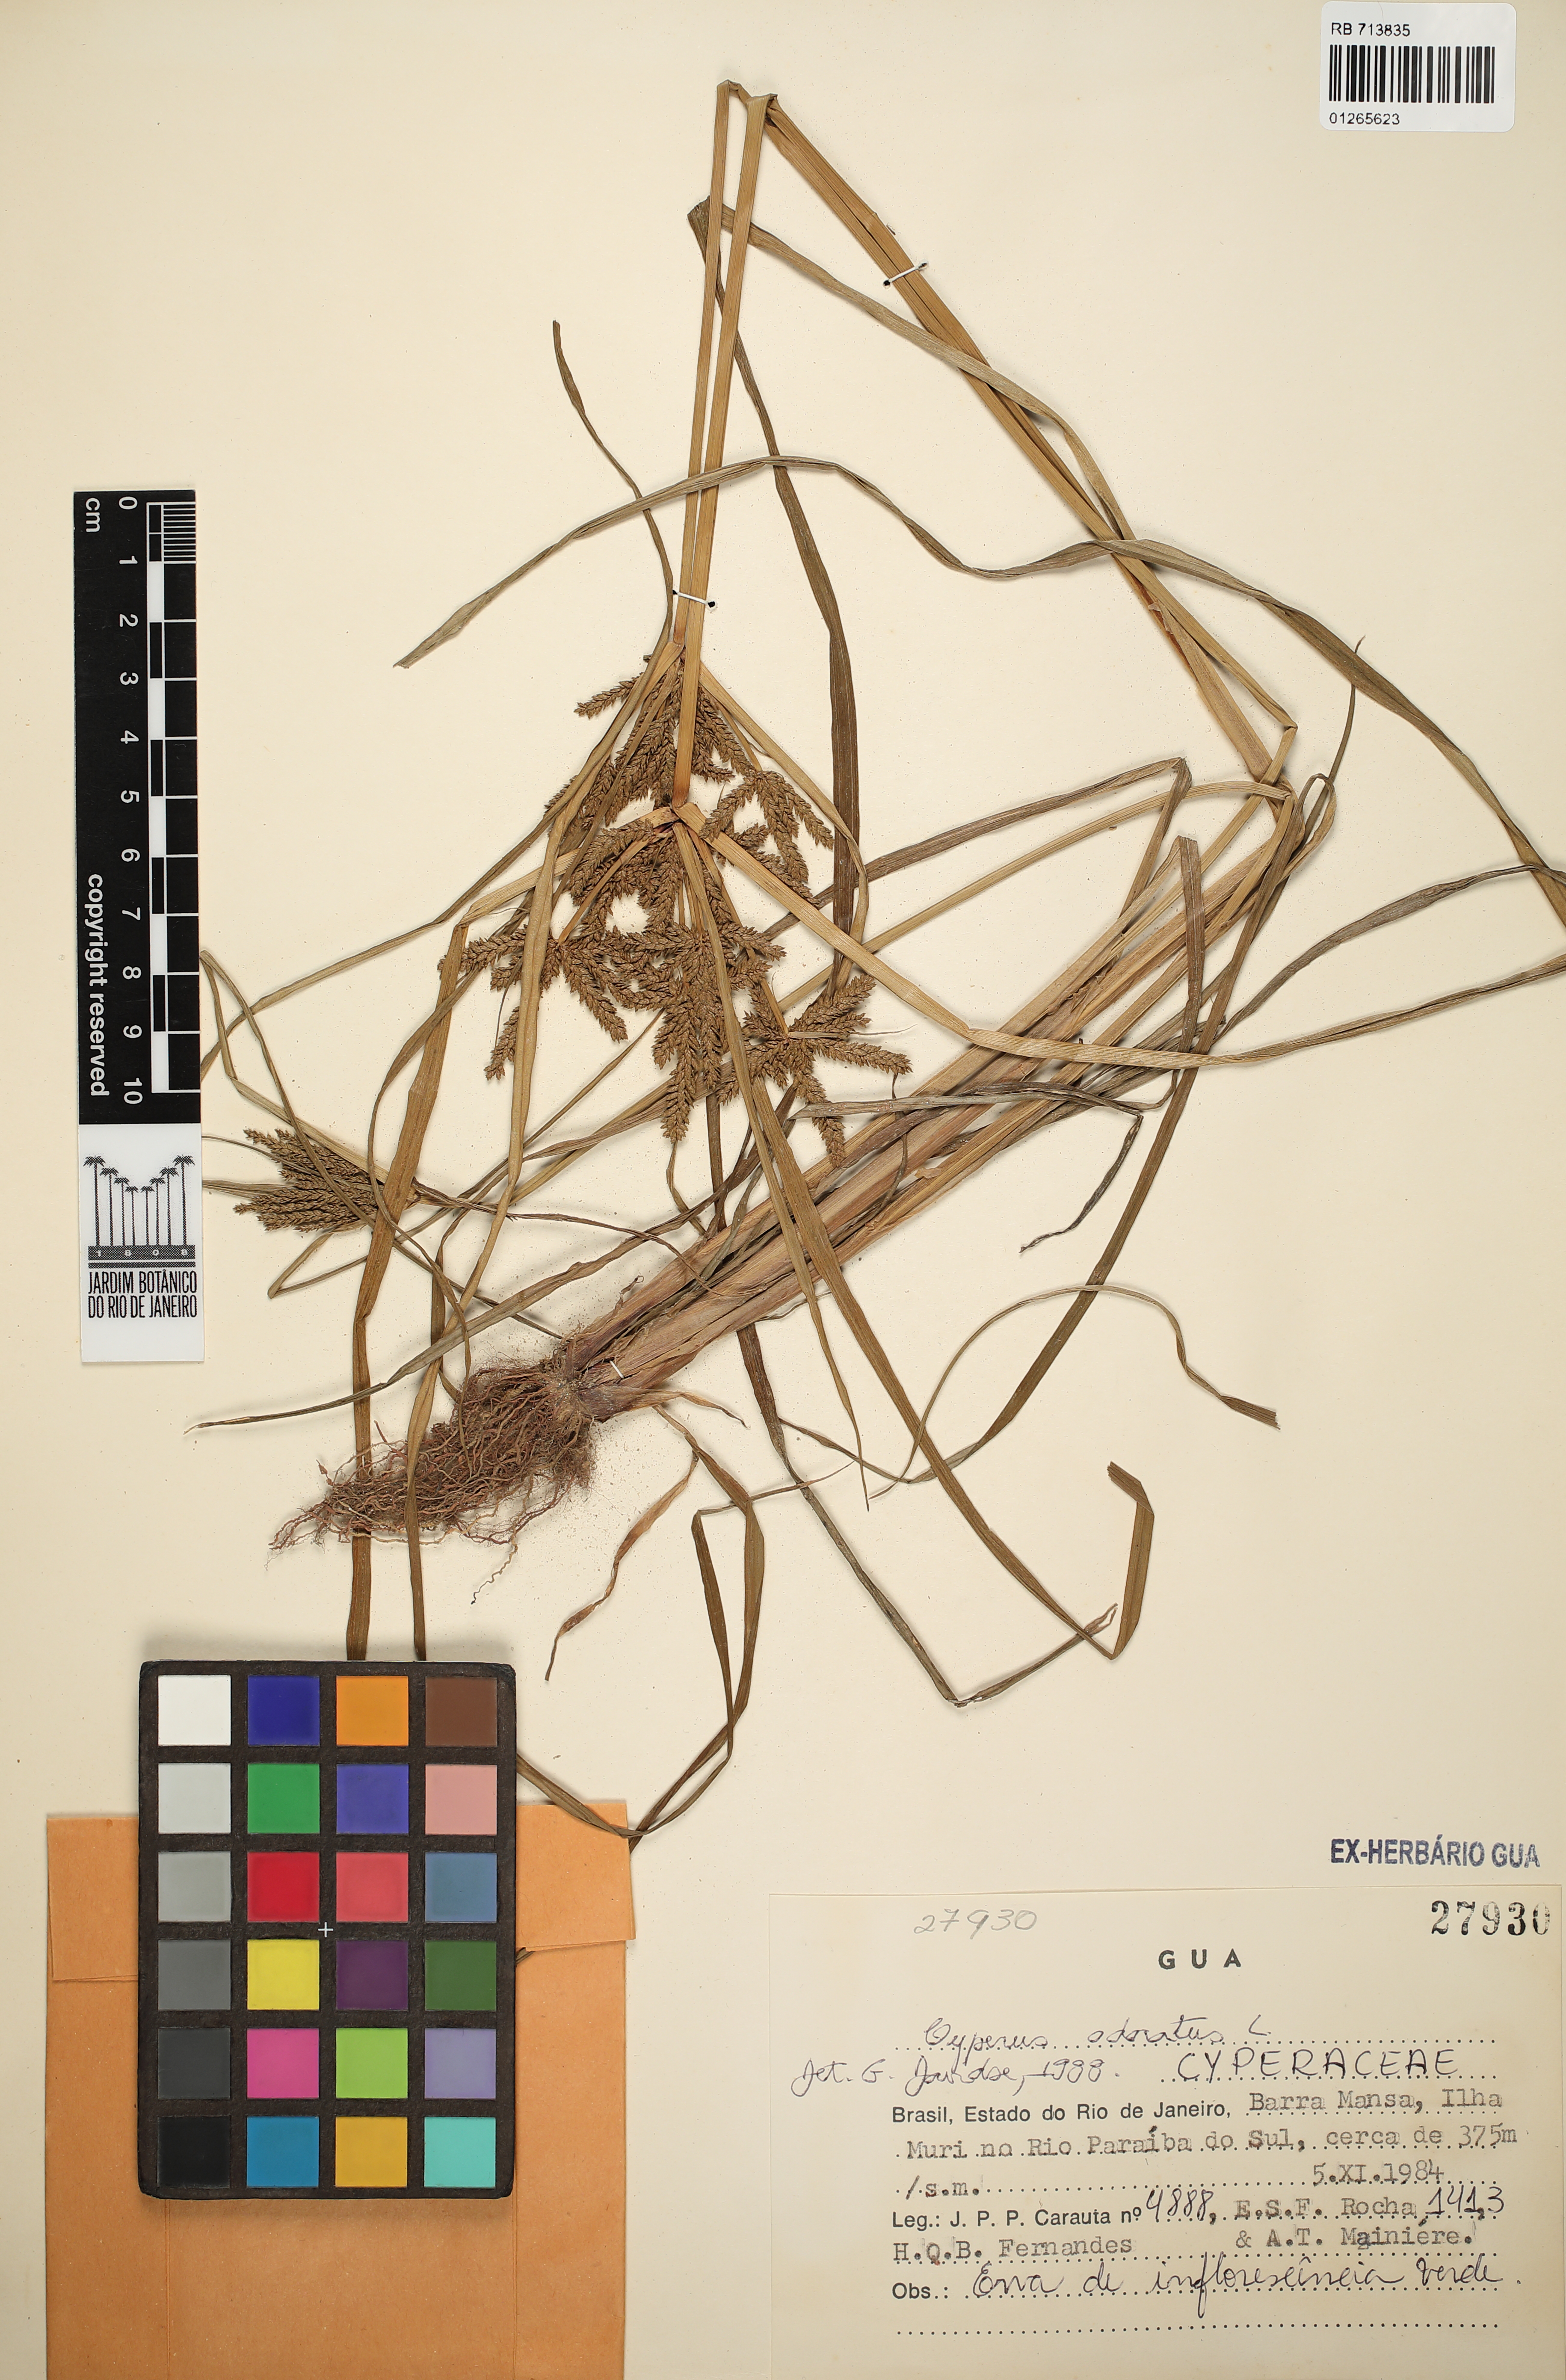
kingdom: Plantae
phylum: Tracheophyta
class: Liliopsida
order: Poales
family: Cyperaceae
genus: Cyperus
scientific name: Cyperus odoratus
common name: Fragrant flatsedge
